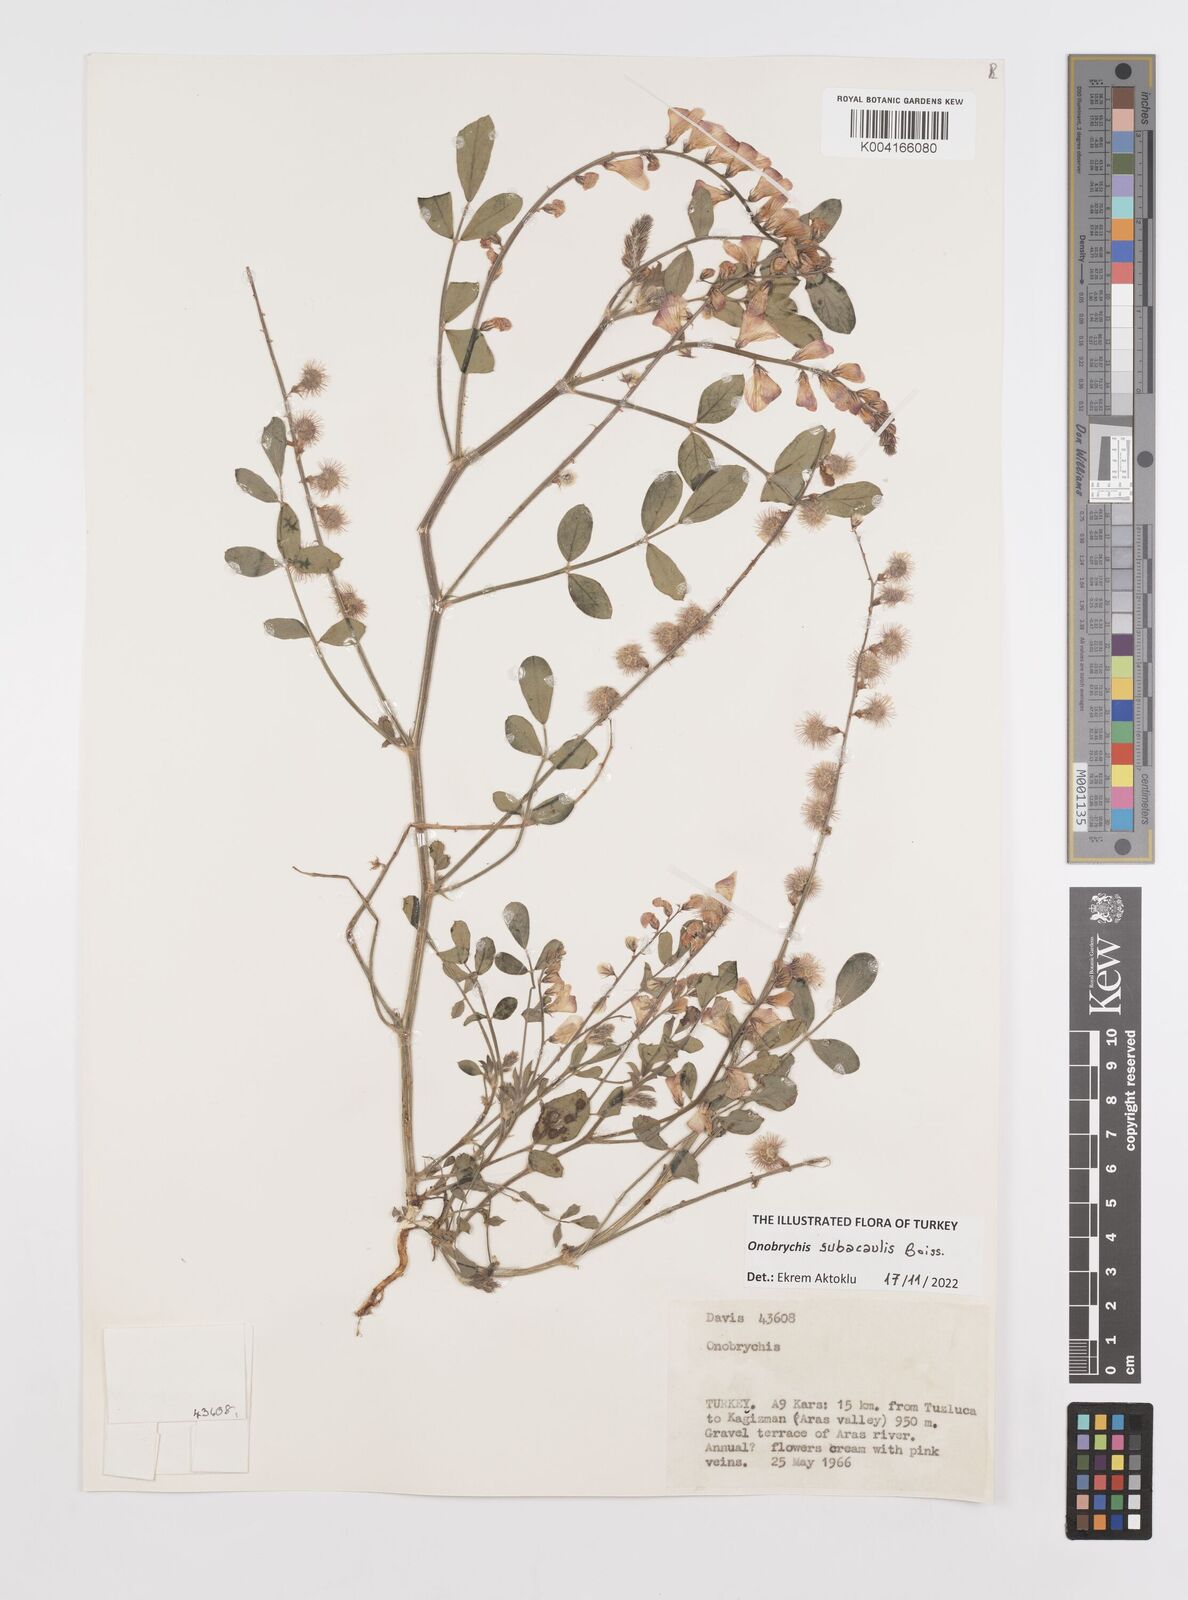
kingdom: Plantae
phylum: Tracheophyta
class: Magnoliopsida
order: Fabales
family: Fabaceae
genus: Onobrychis
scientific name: Onobrychis subacaulis
